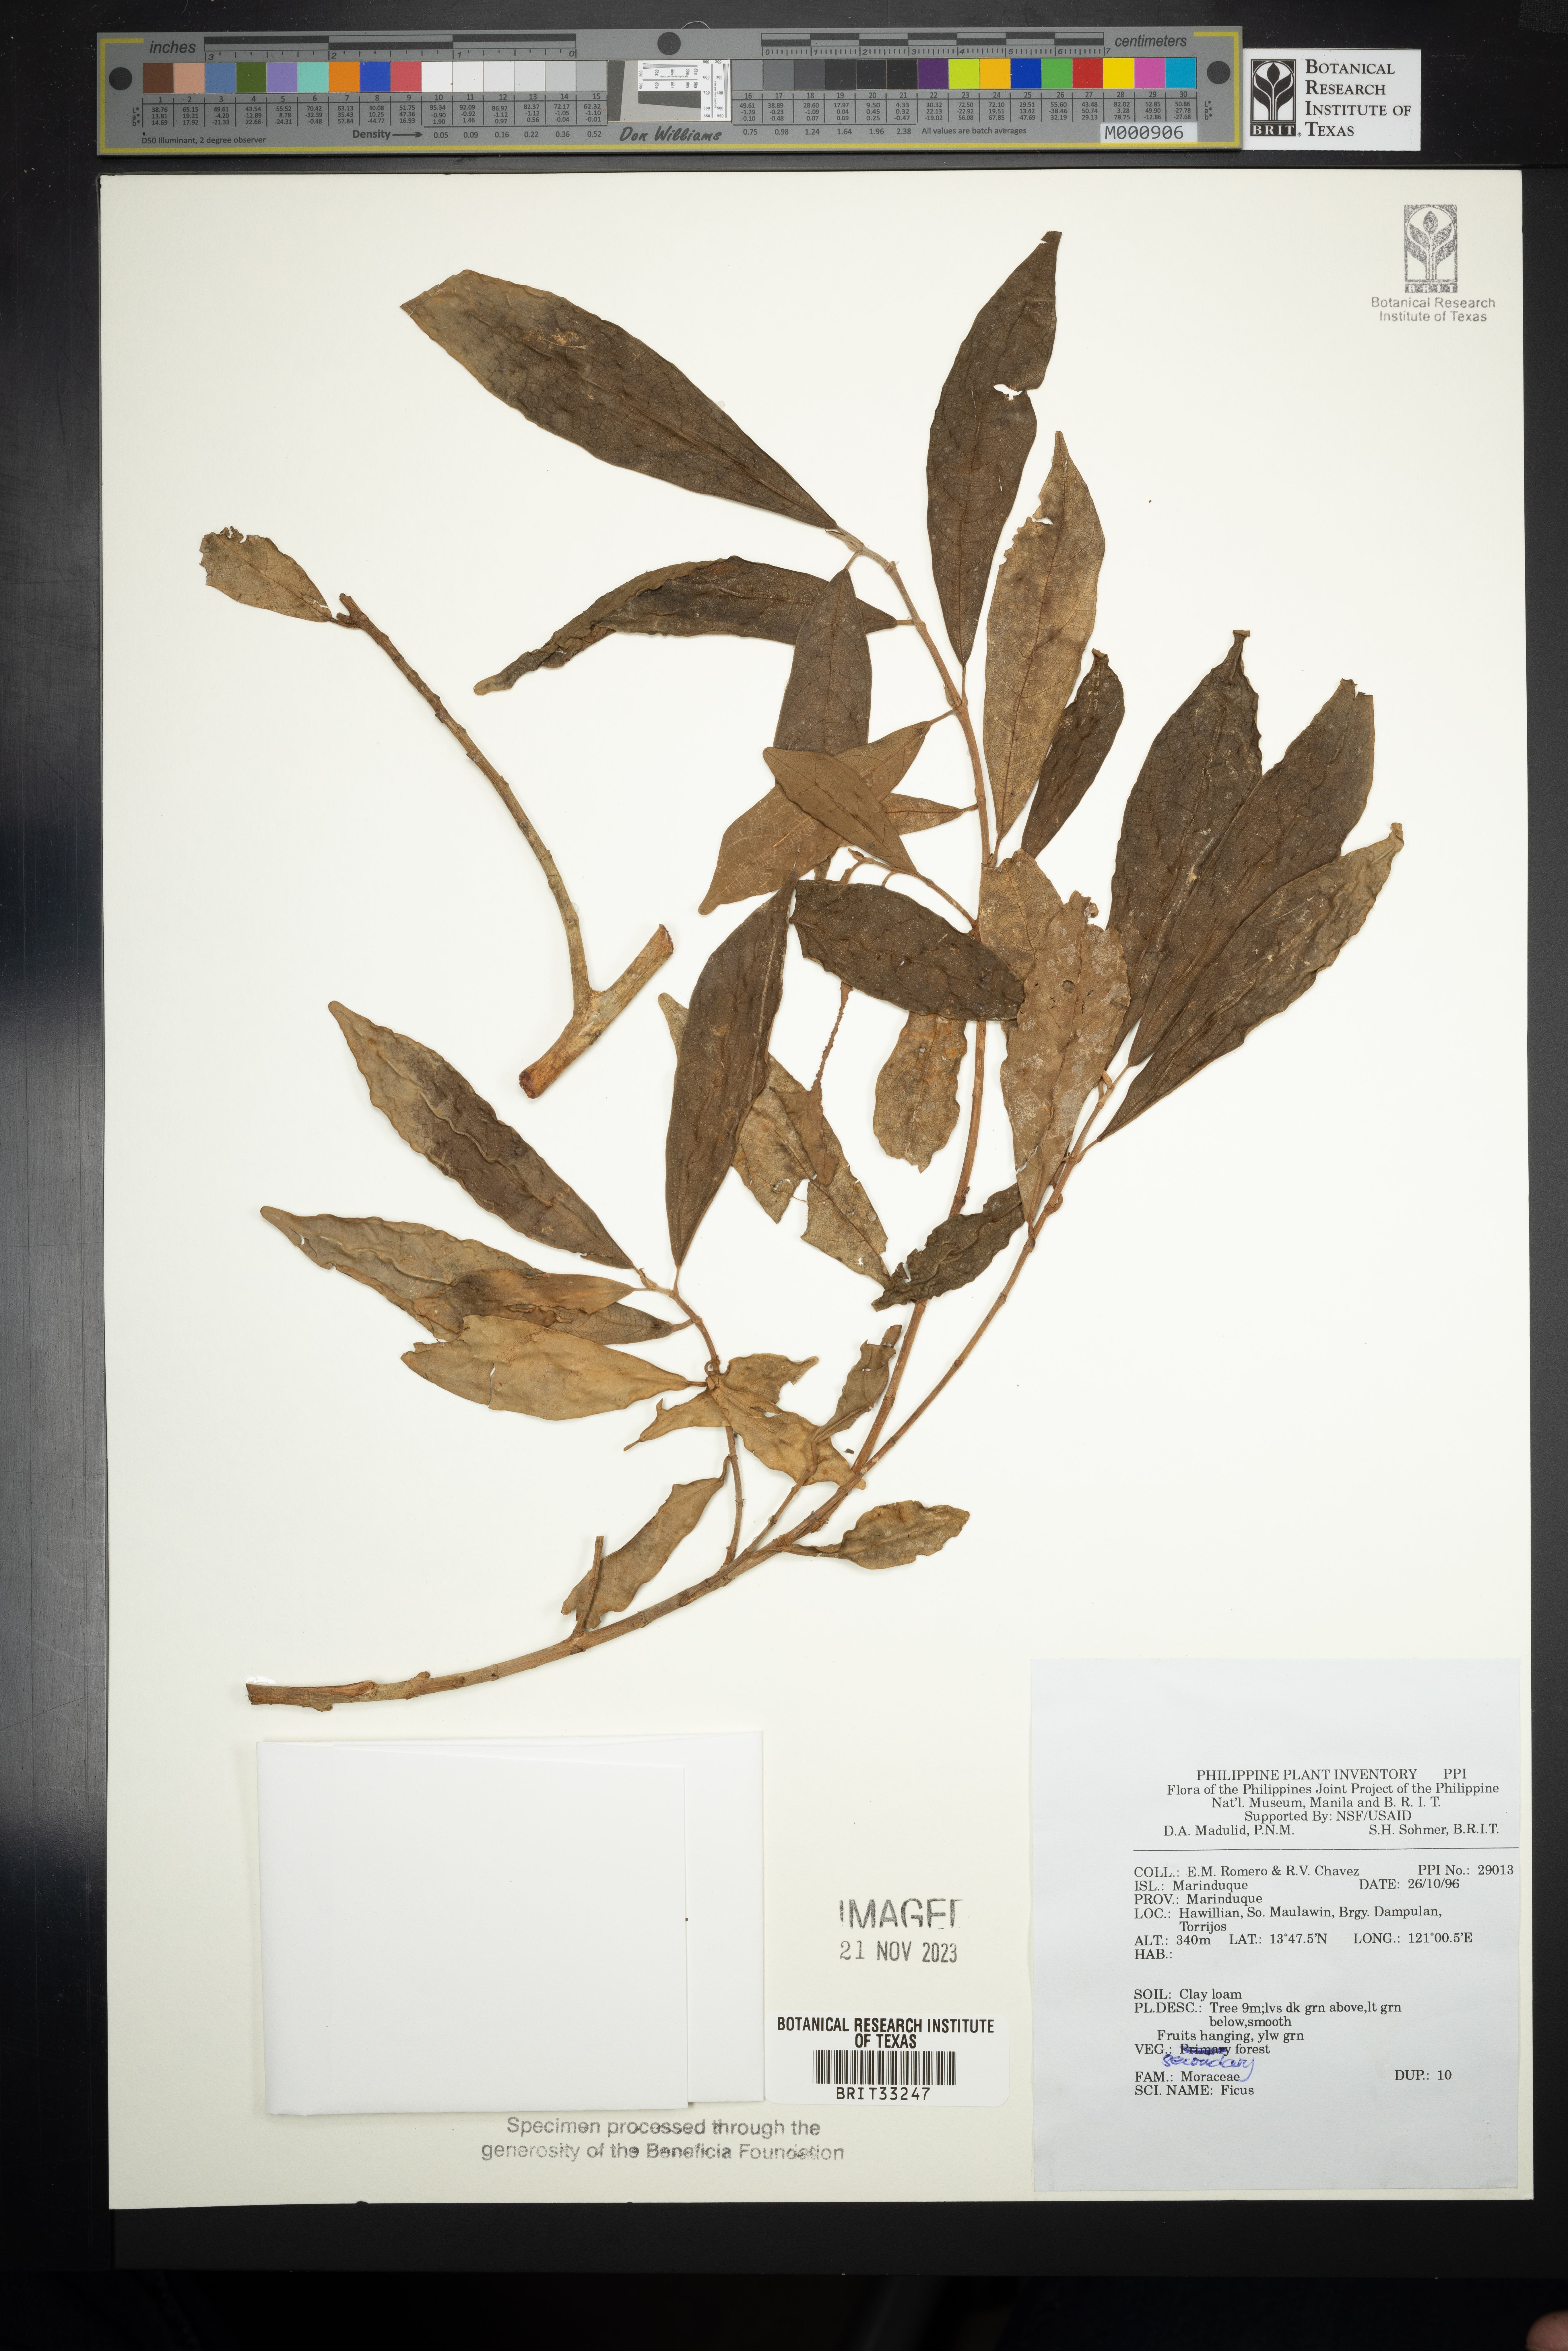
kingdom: Plantae
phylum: Tracheophyta
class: Magnoliopsida
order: Rosales
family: Moraceae
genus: Ficus
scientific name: Ficus
